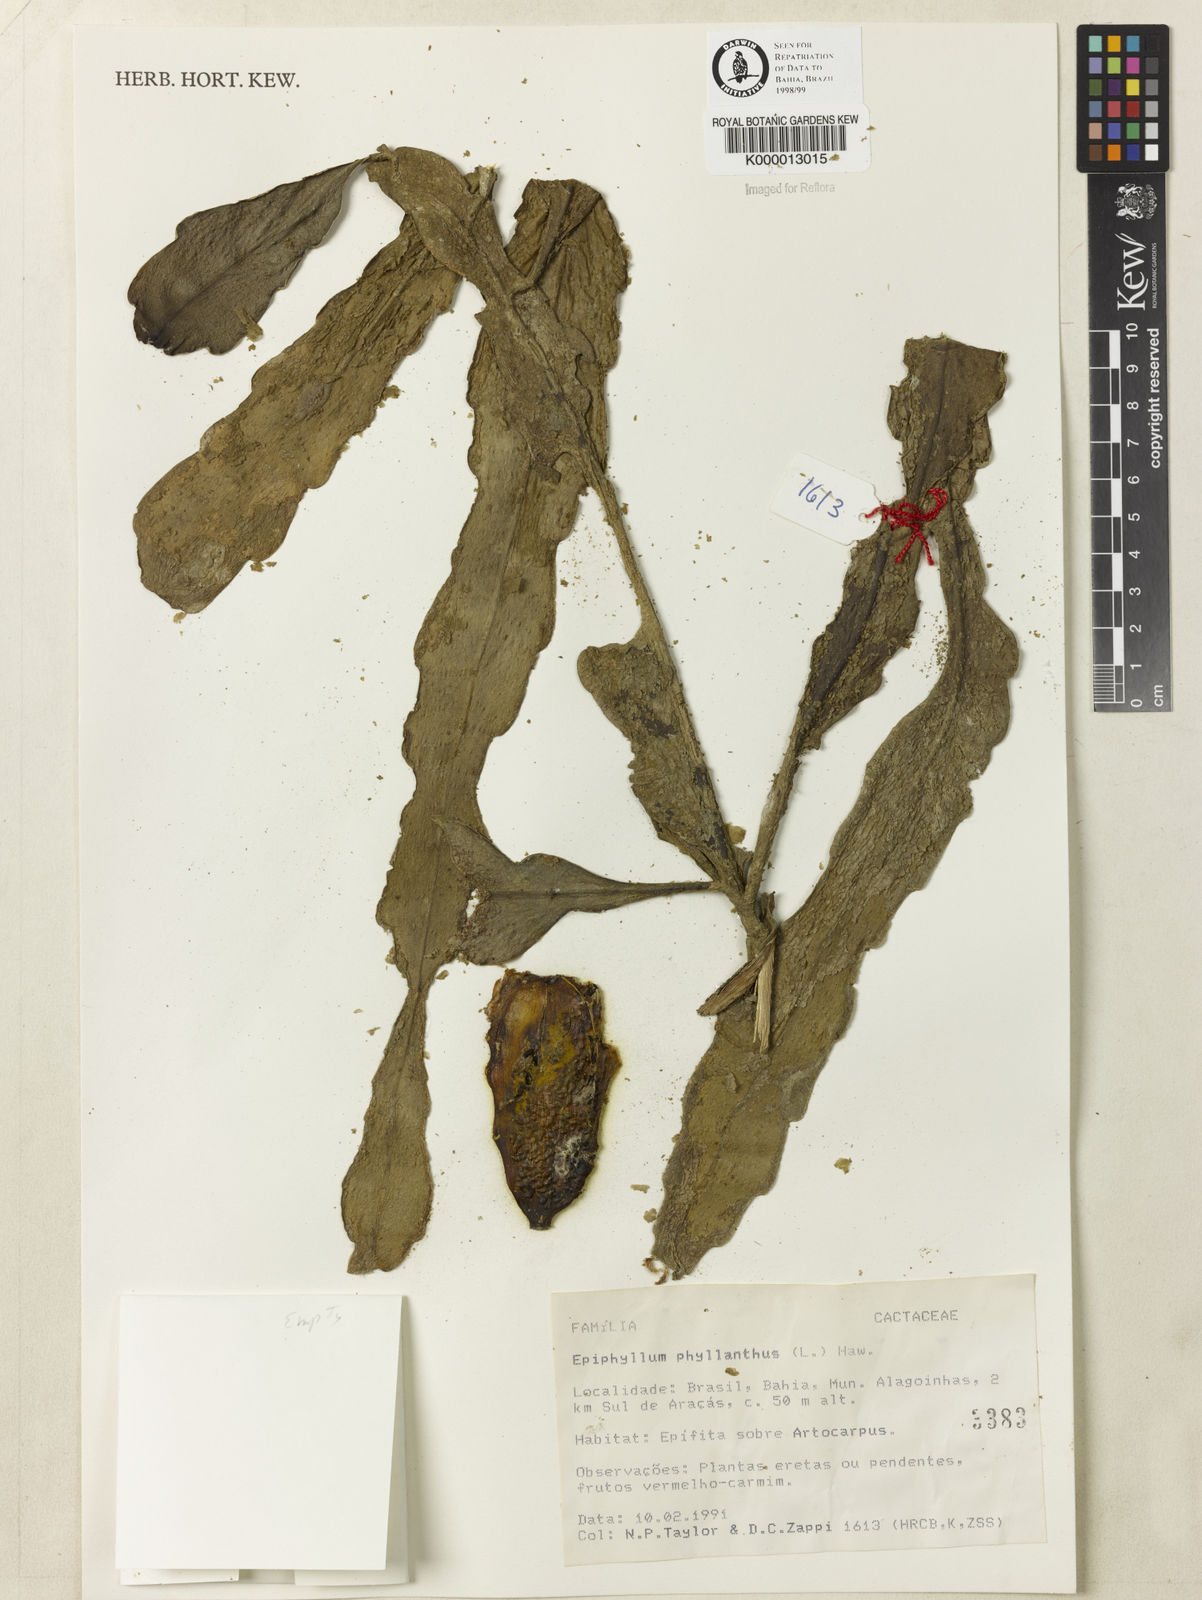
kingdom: Plantae
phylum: Tracheophyta
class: Magnoliopsida
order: Caryophyllales
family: Cactaceae
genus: Epiphyllum
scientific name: Epiphyllum phyllanthus
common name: Climbing cactus
